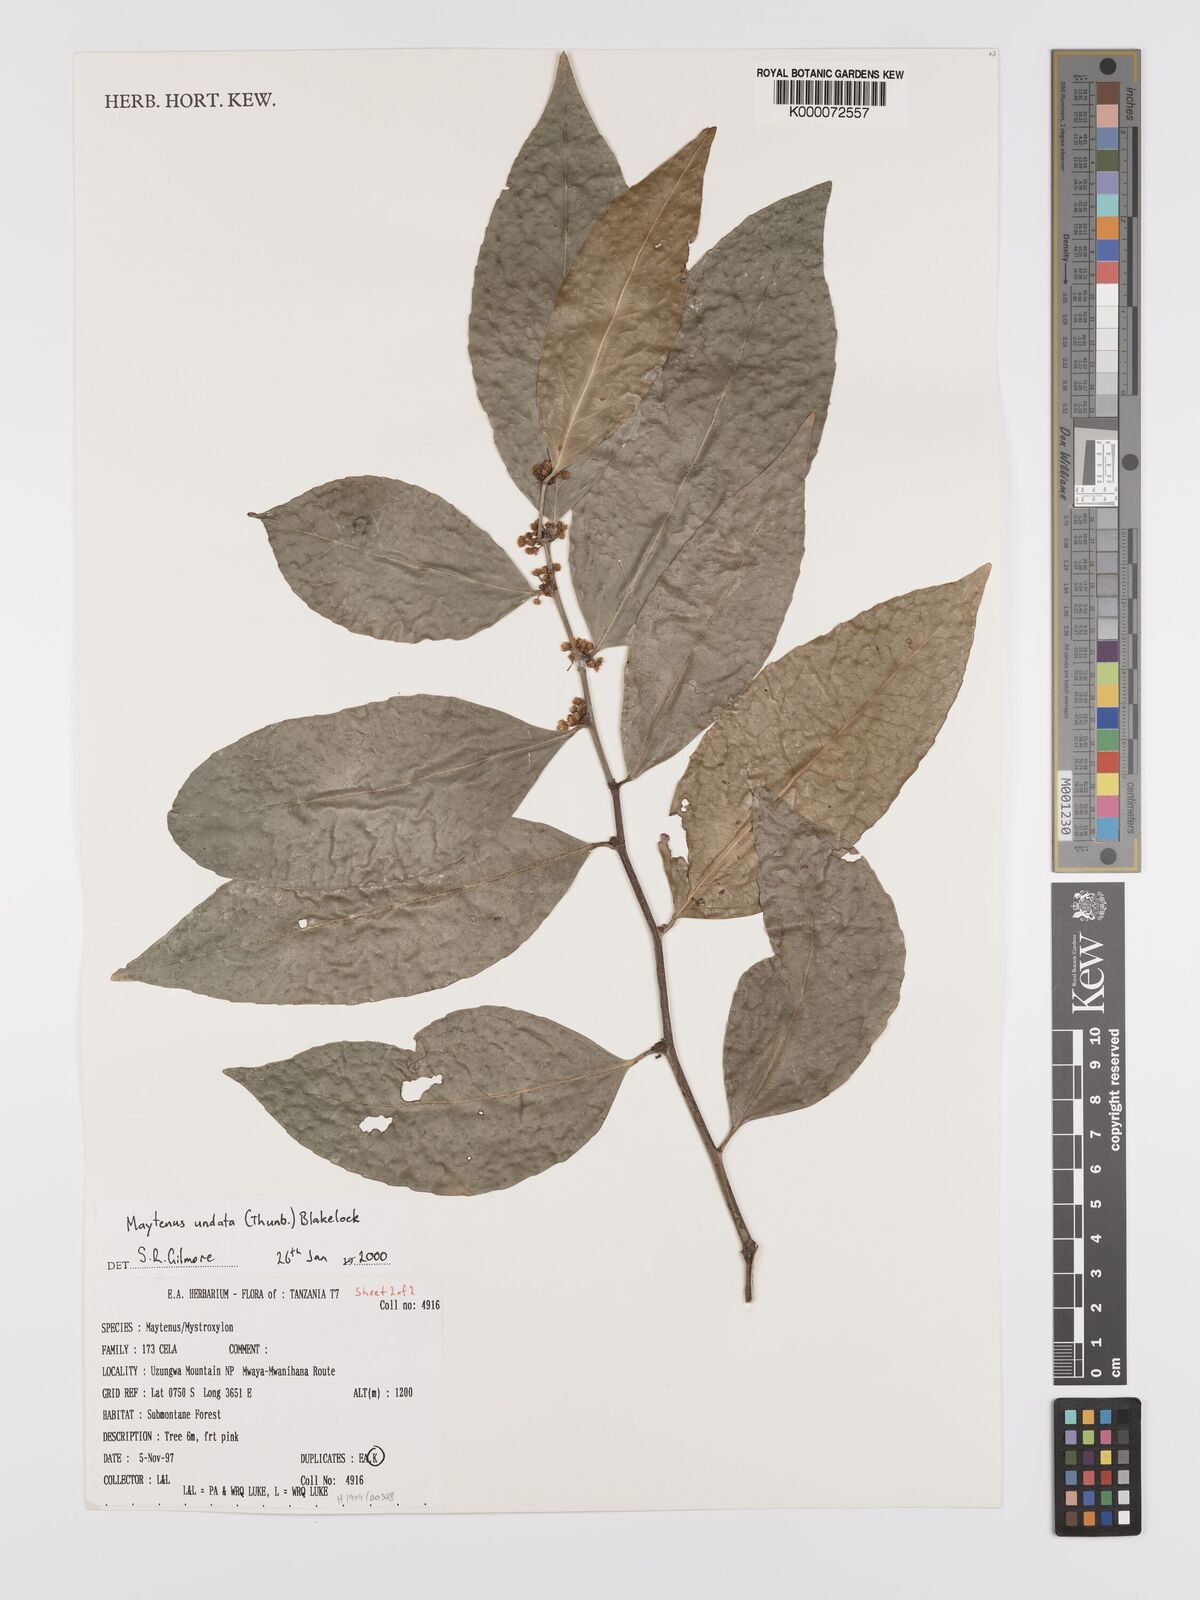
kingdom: Plantae
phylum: Tracheophyta
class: Magnoliopsida
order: Celastrales
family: Celastraceae
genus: Gymnosporia
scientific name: Gymnosporia undata
